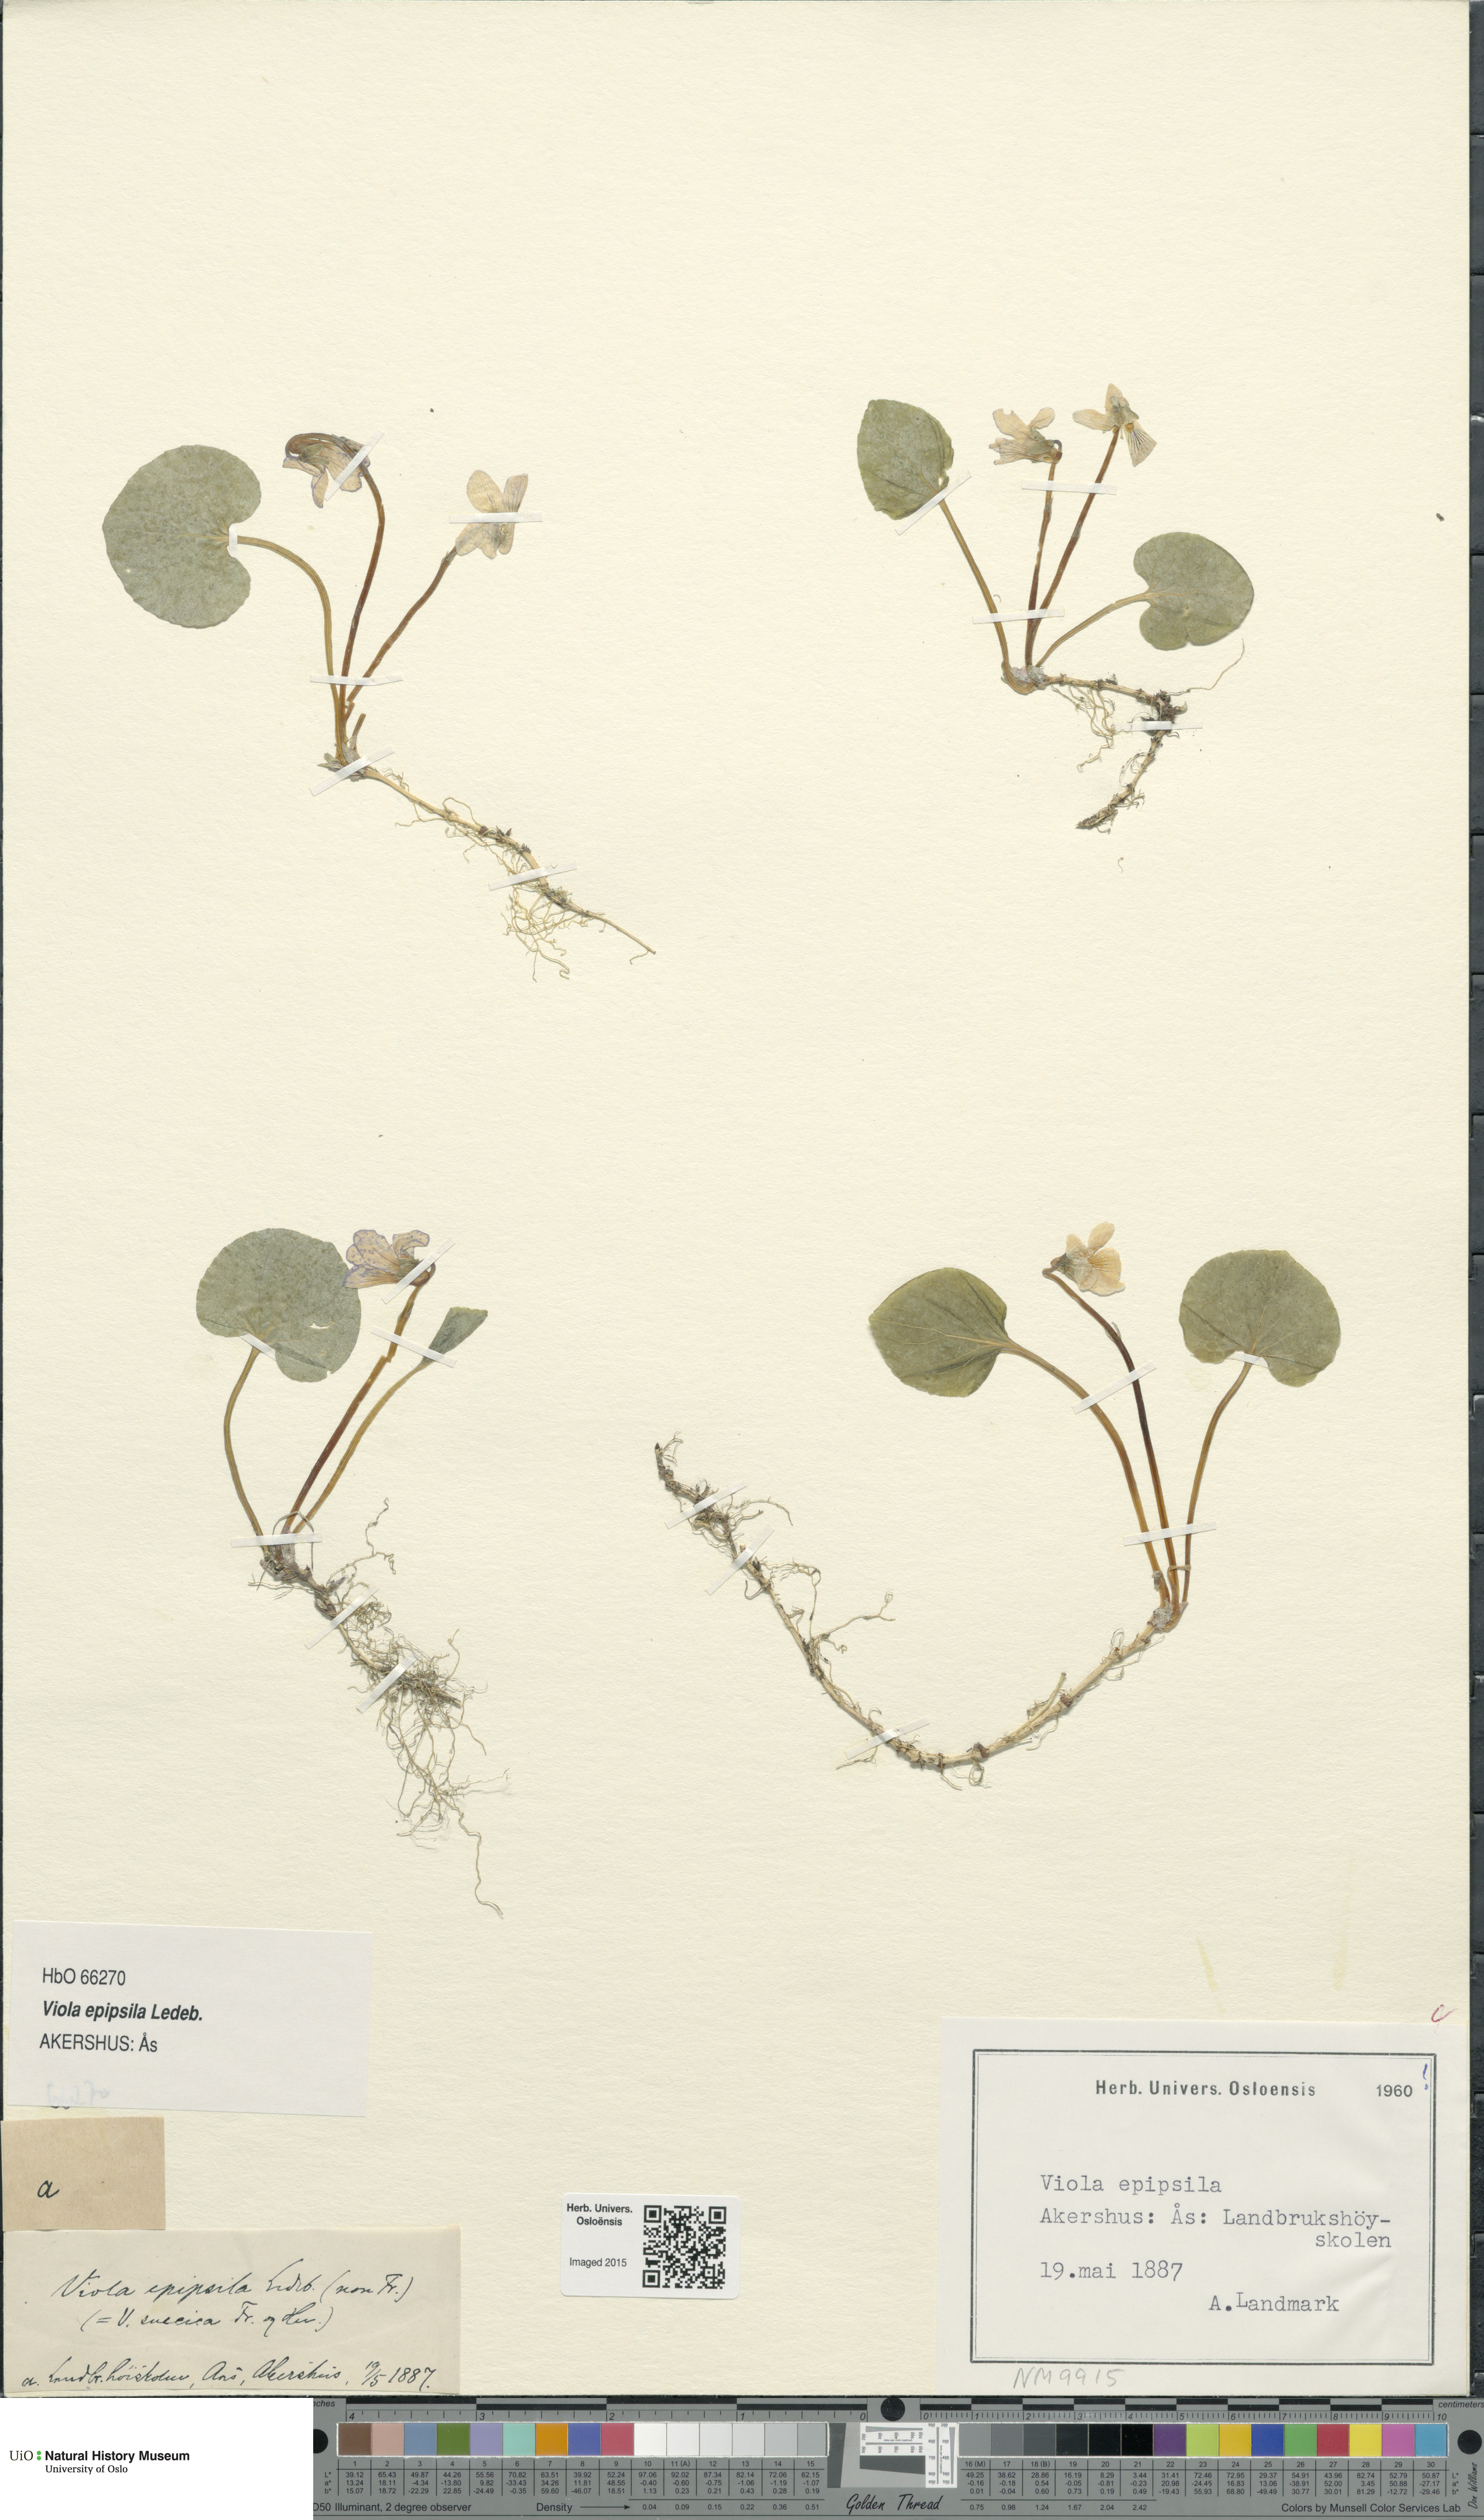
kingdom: Plantae
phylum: Tracheophyta
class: Magnoliopsida
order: Malpighiales
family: Violaceae
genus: Viola
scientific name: Viola epipsila
